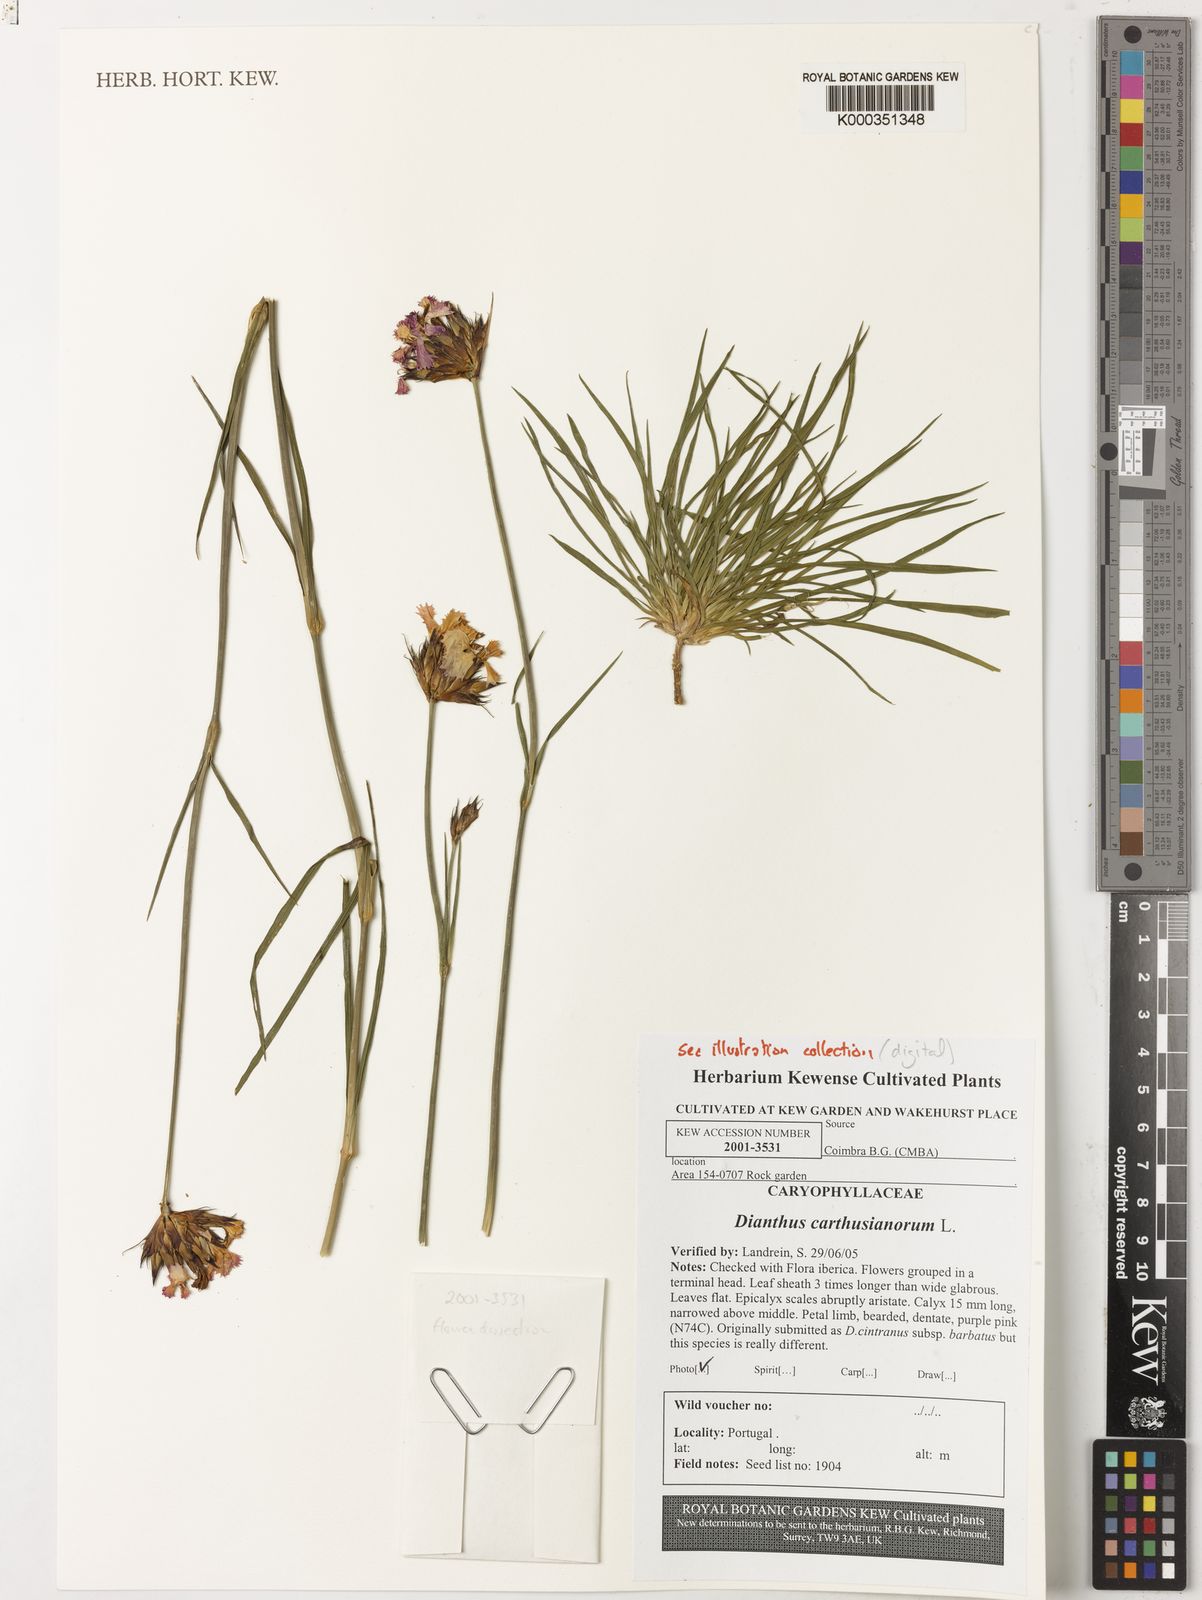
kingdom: Plantae
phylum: Tracheophyta
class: Magnoliopsida
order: Caryophyllales
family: Caryophyllaceae
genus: Dianthus
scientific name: Dianthus carthusianorum
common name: Carthusian pink
